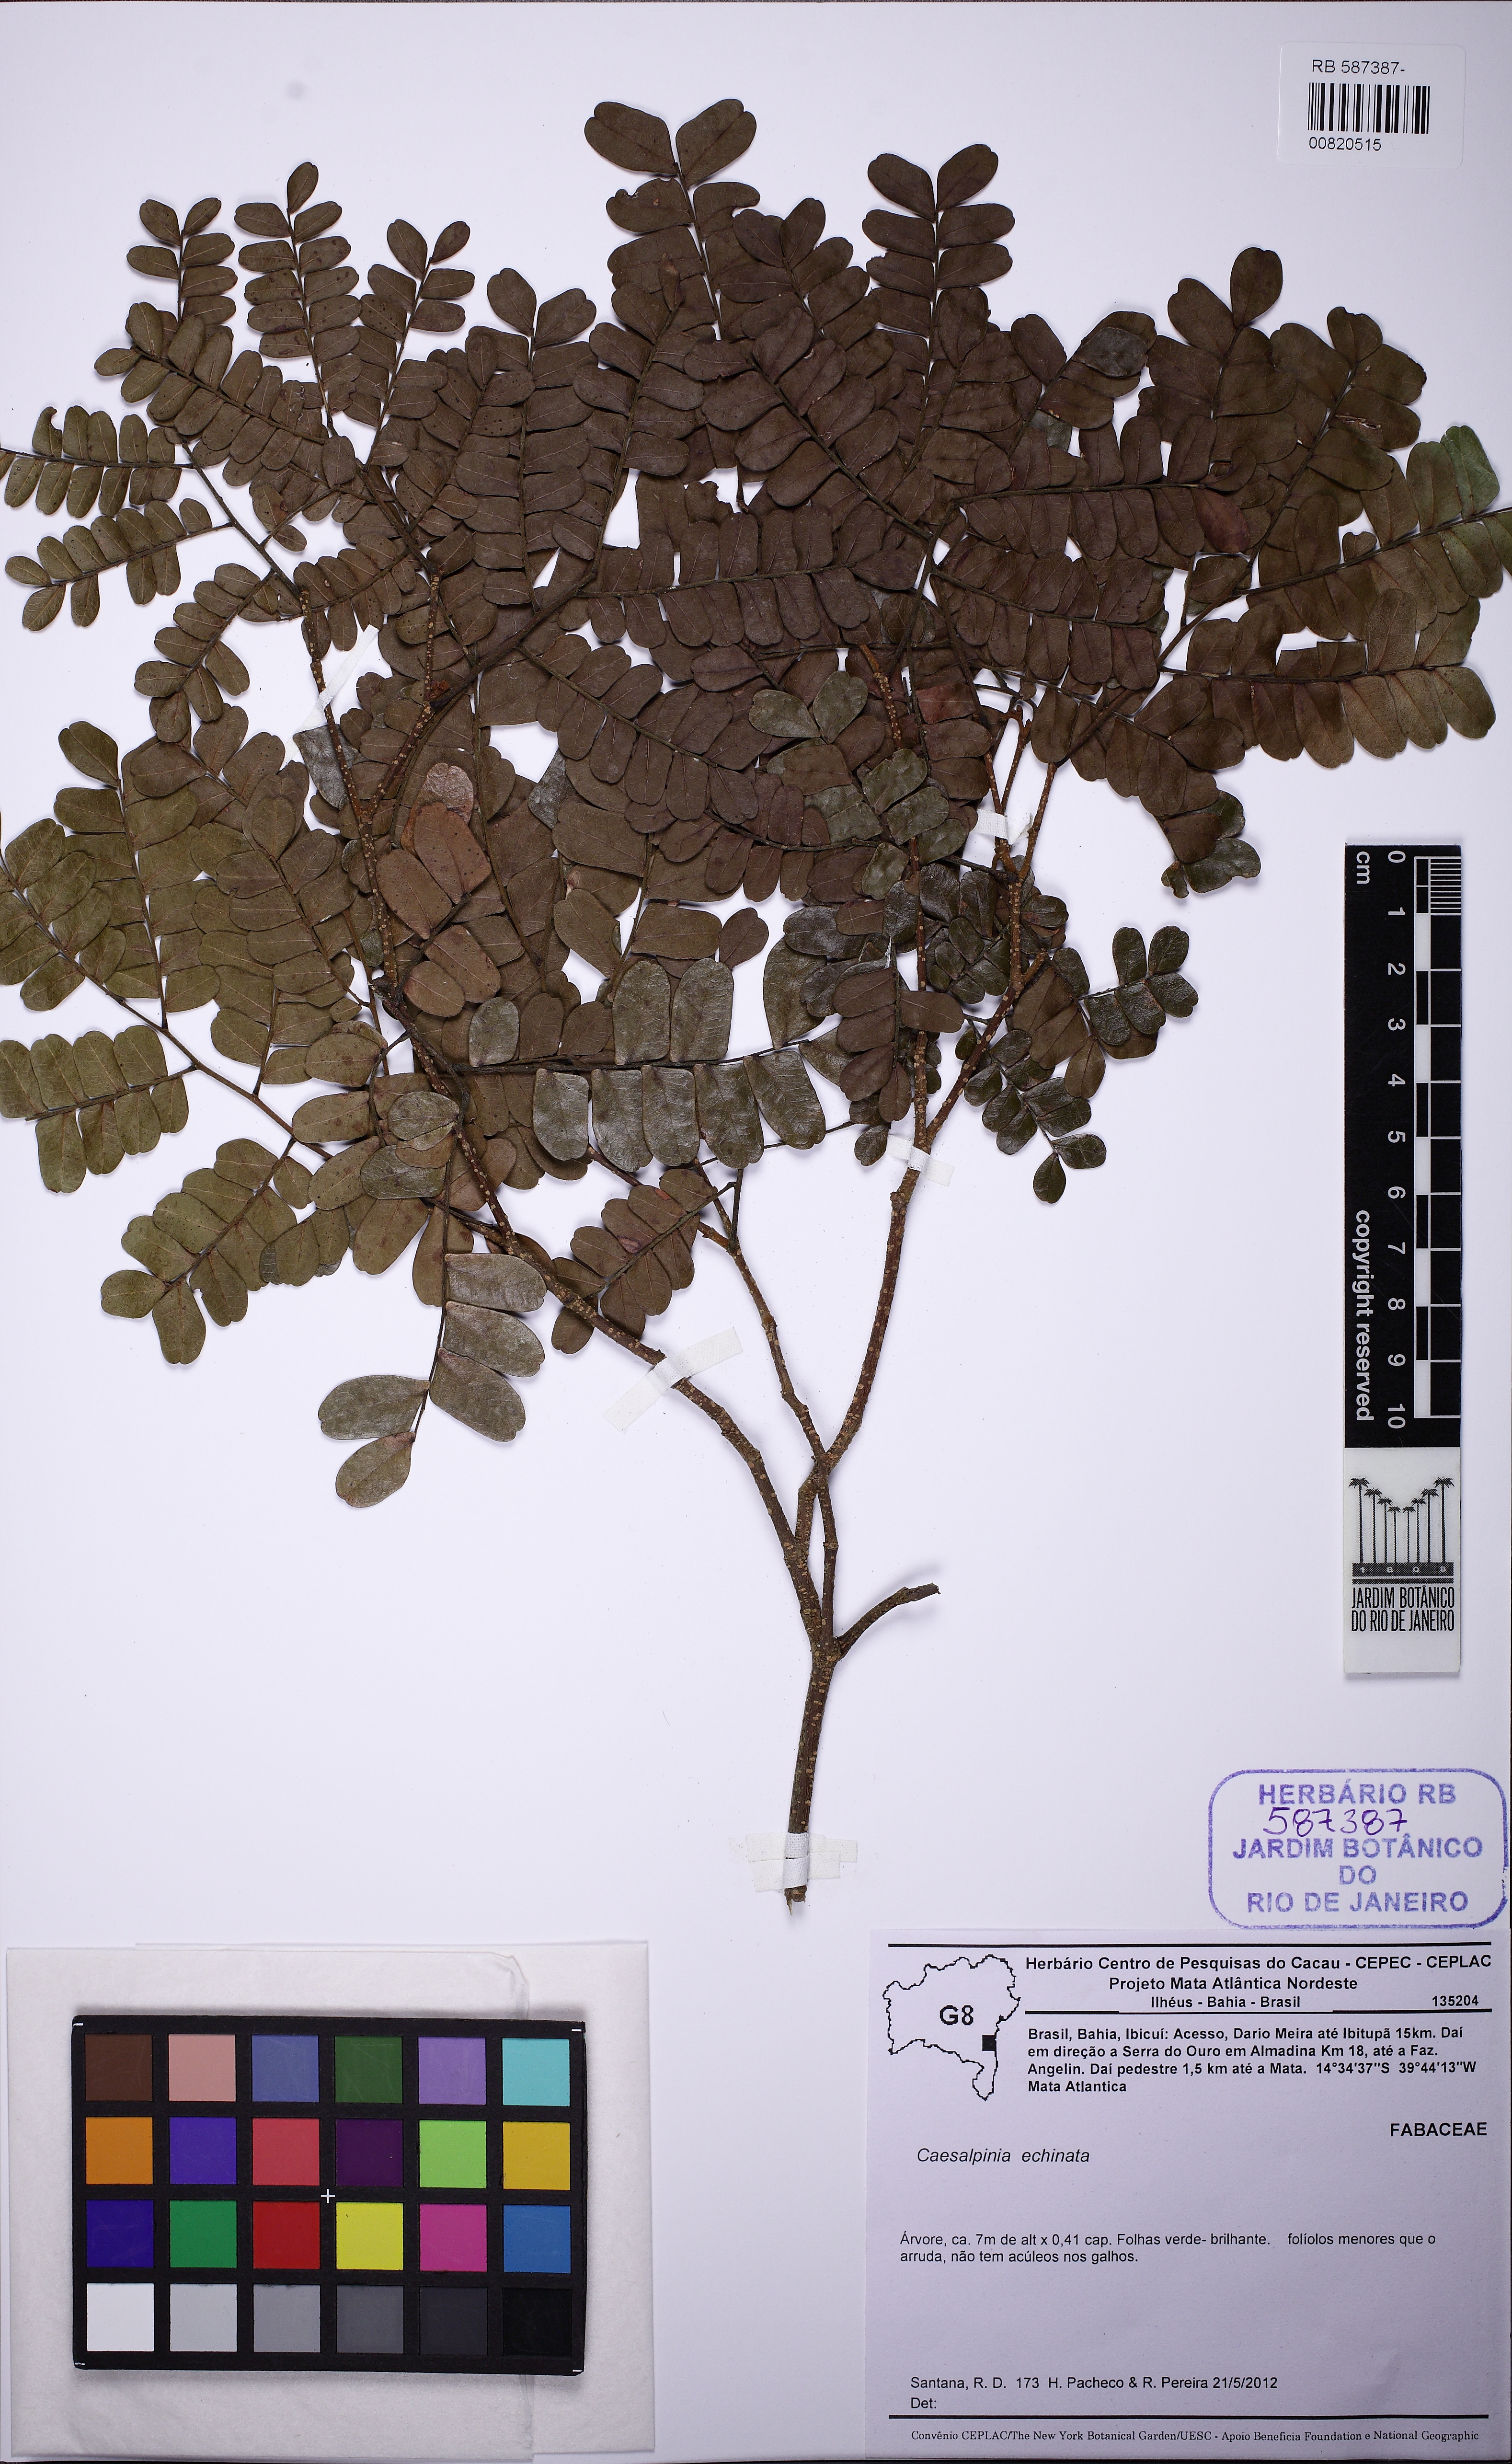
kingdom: Plantae
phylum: Tracheophyta
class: Magnoliopsida
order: Fabales
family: Fabaceae
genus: Paubrasilia
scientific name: Paubrasilia echinata
